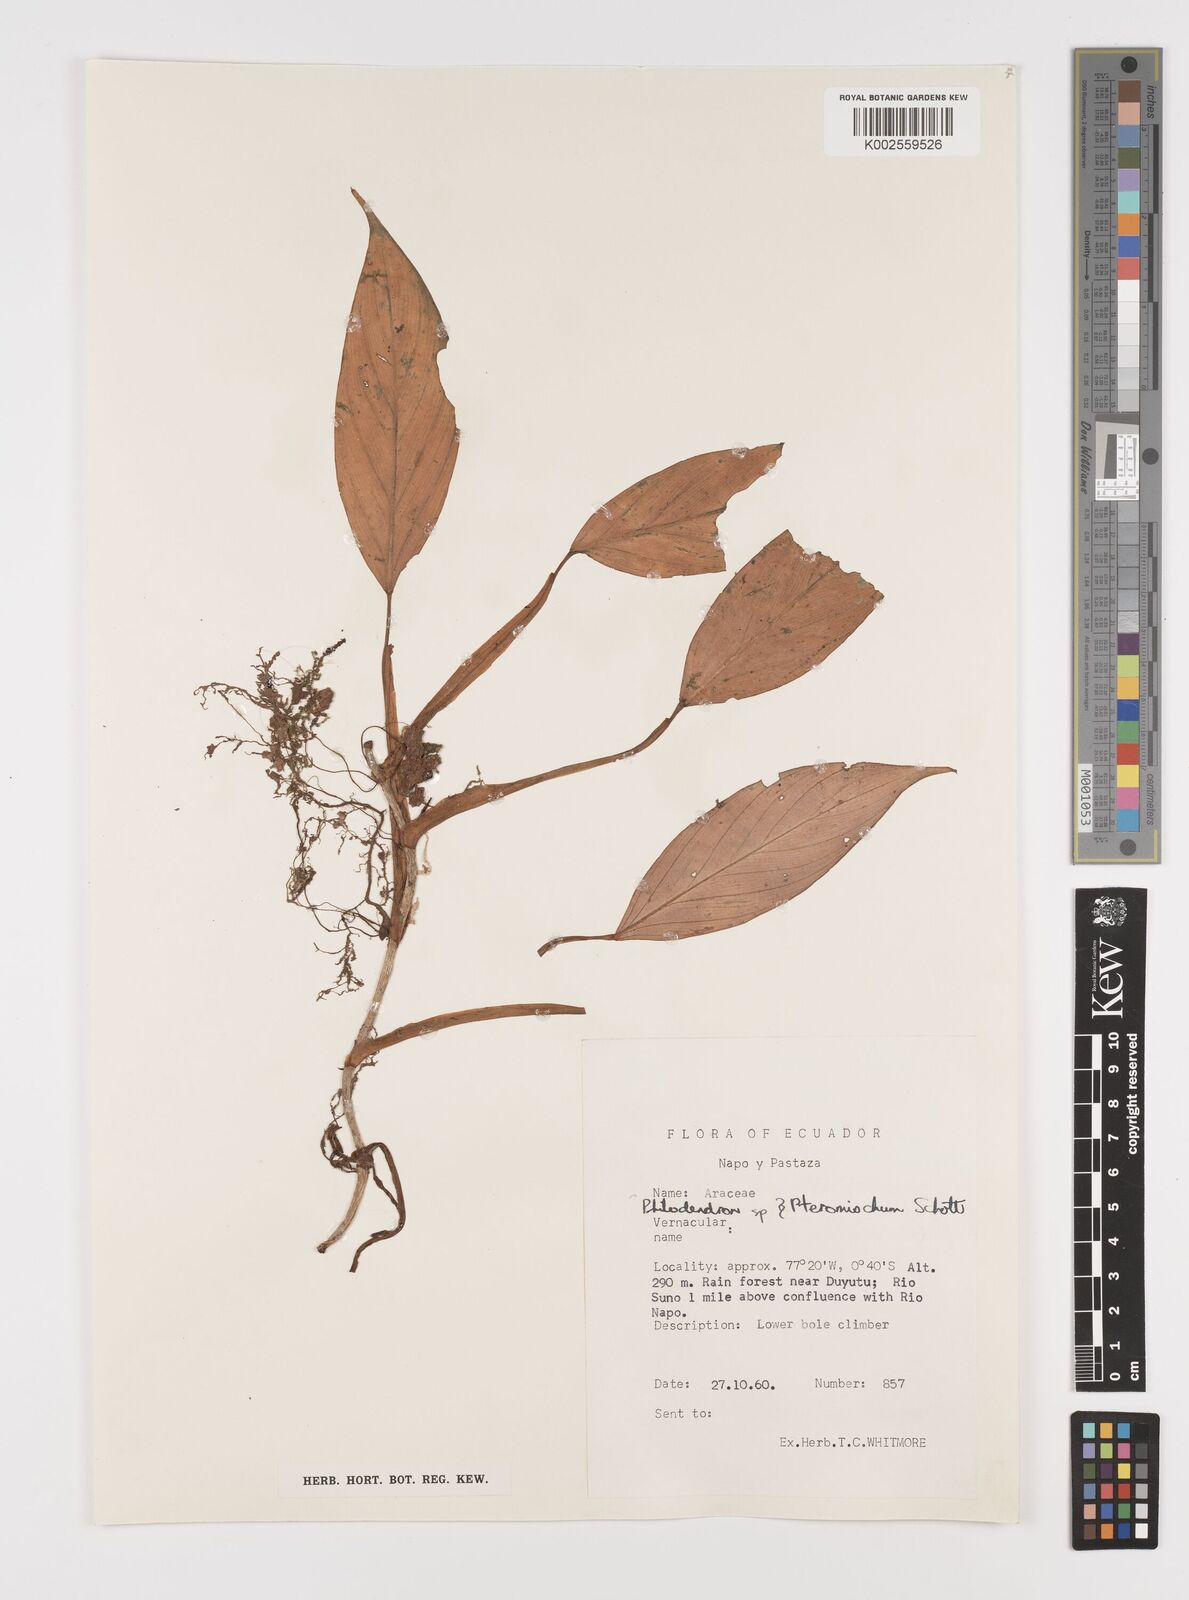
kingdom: Plantae
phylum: Tracheophyta
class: Liliopsida
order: Alismatales
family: Araceae
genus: Philodendron
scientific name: Philodendron
